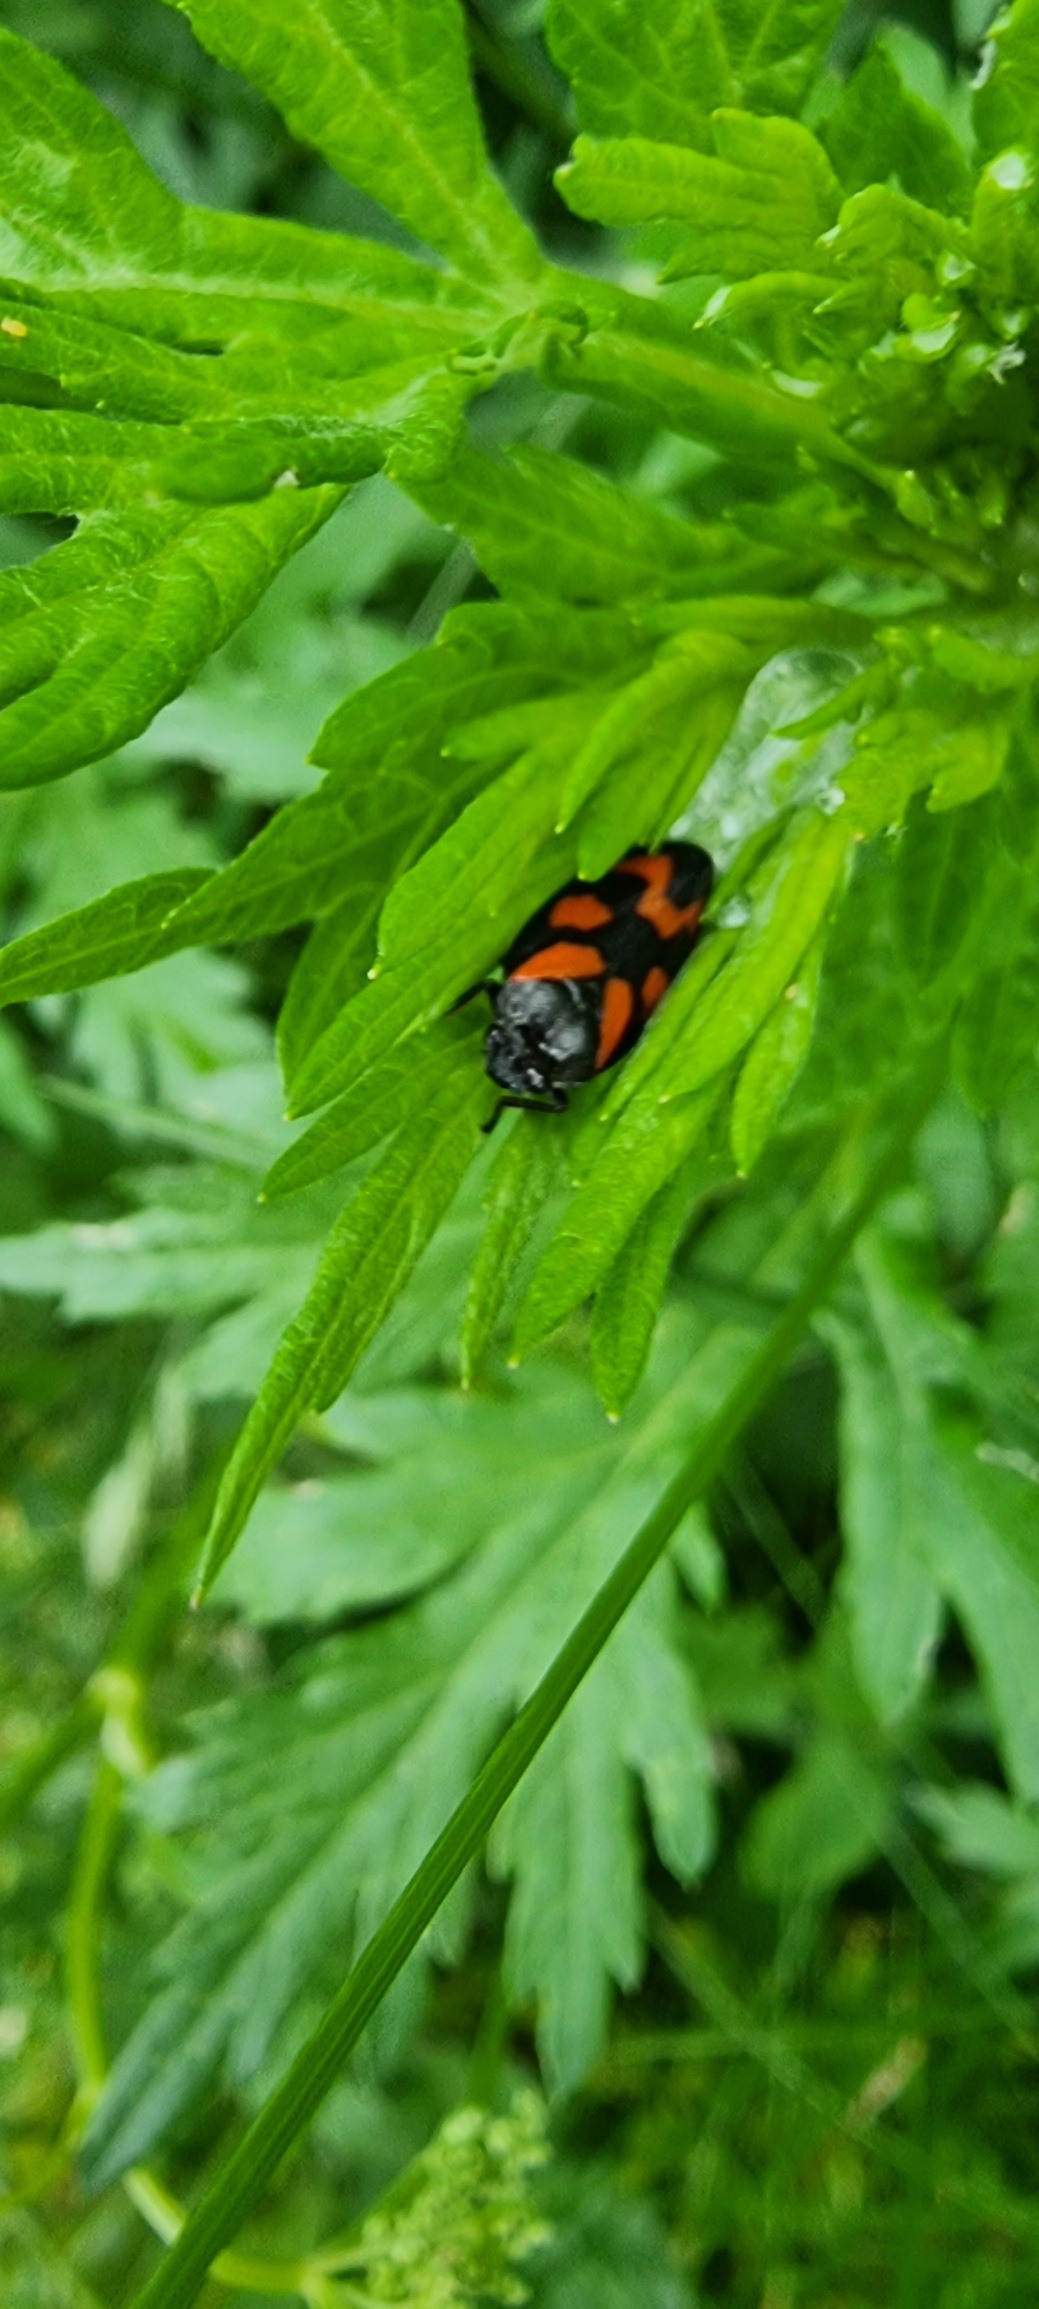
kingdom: Animalia
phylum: Arthropoda
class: Insecta
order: Hemiptera
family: Cercopidae
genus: Cercopis
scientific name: Cercopis vulnerata
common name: Blodcikade
